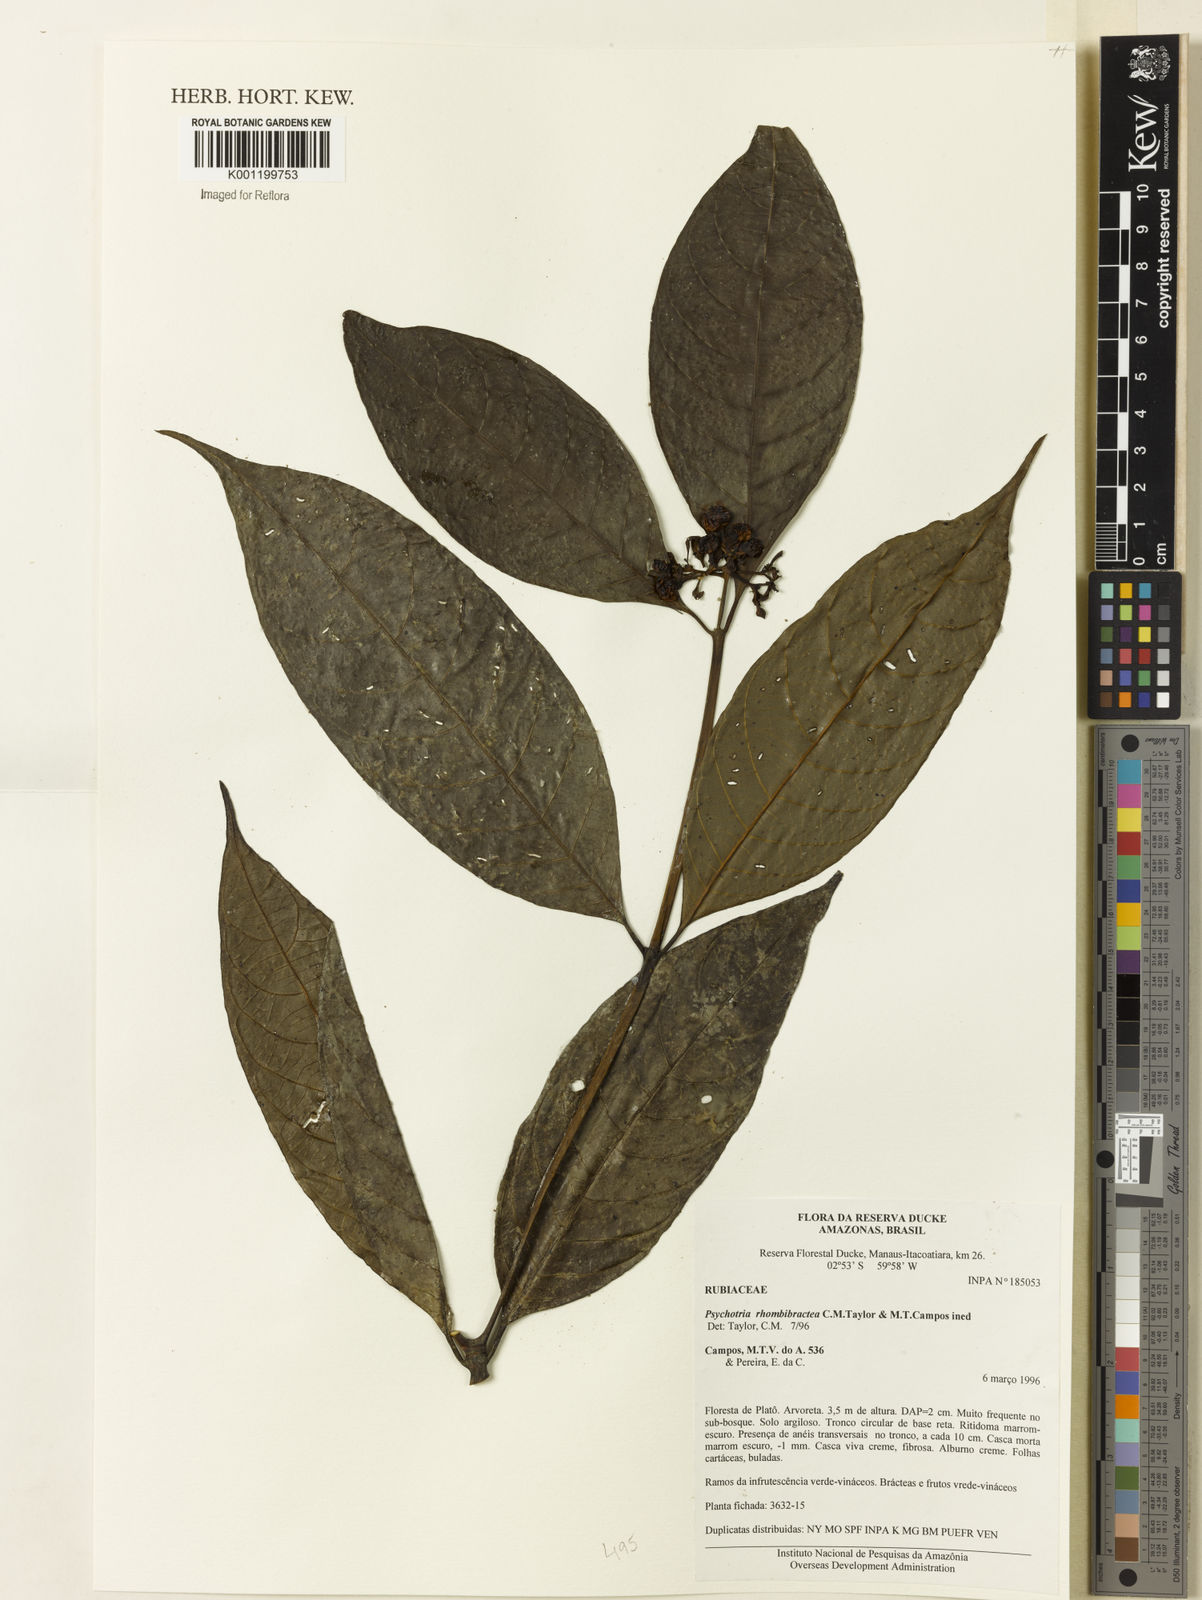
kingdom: Plantae
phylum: Tracheophyta
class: Magnoliopsida
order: Gentianales
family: Rubiaceae
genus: Psychotria
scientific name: Psychotria
